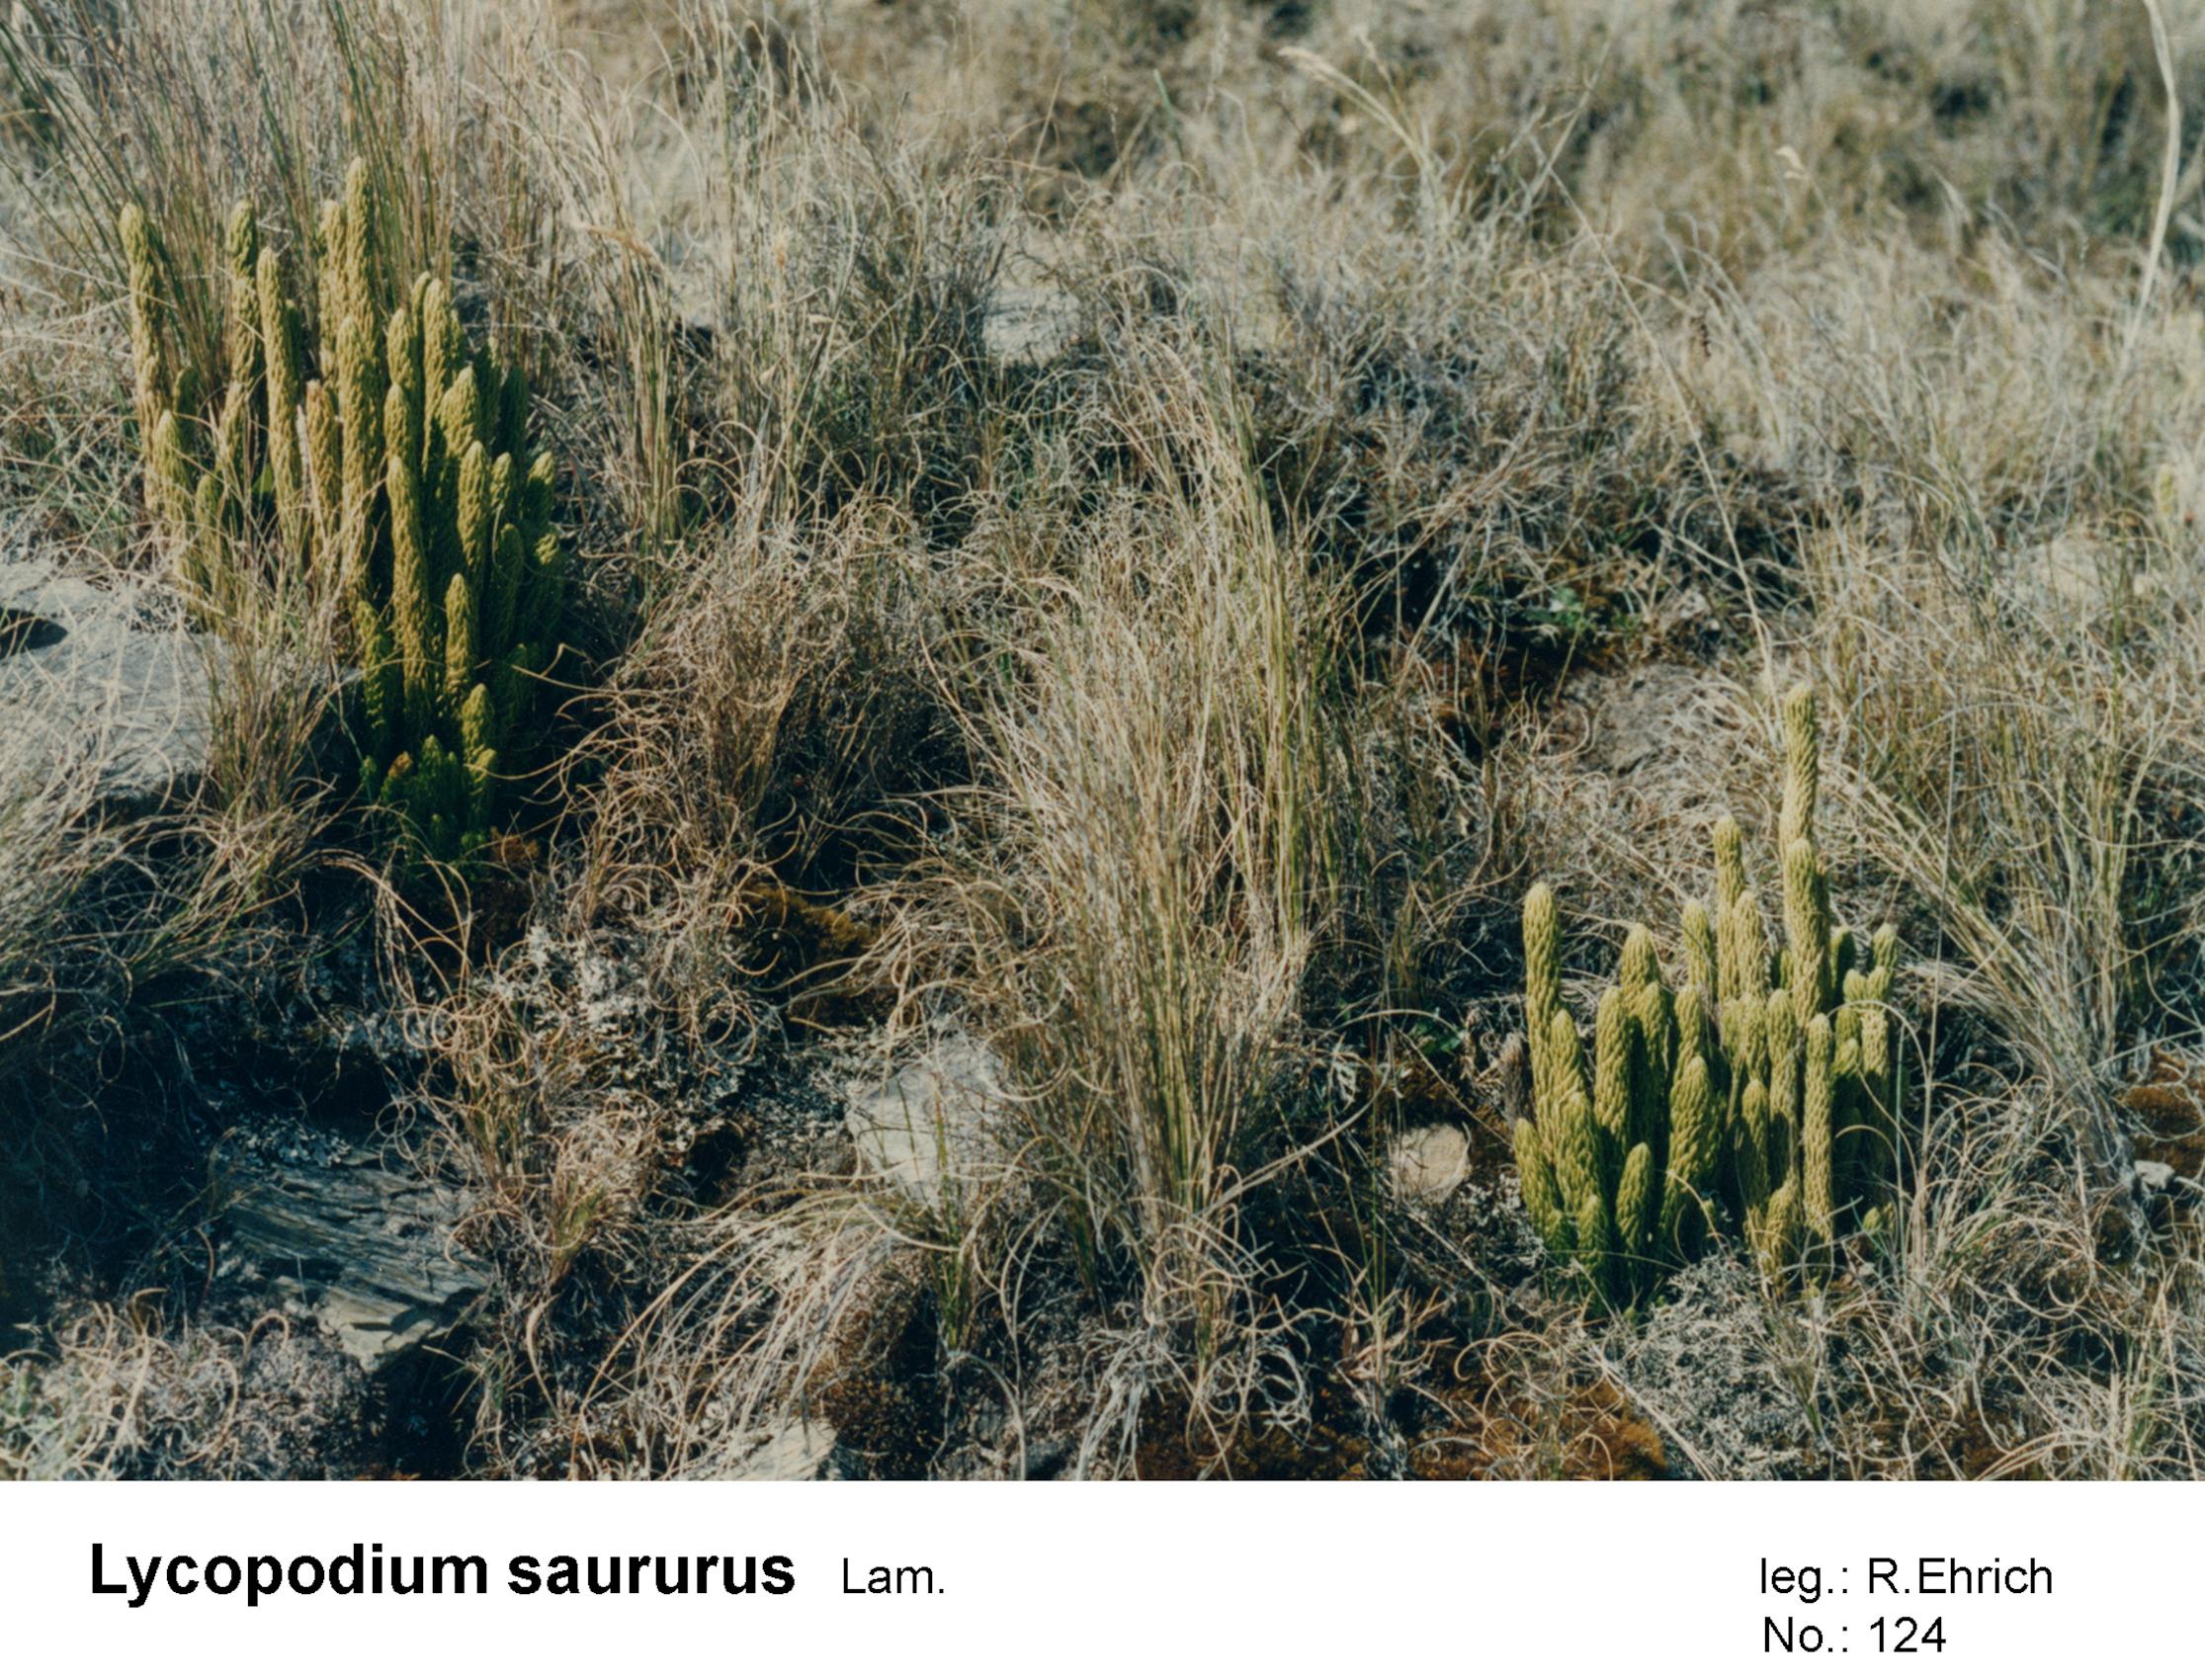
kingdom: Plantae
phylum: Tracheophyta
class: Lycopodiopsida
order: Lycopodiales
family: Lycopodiaceae
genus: Phlegmariurus
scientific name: Phlegmariurus saururus
